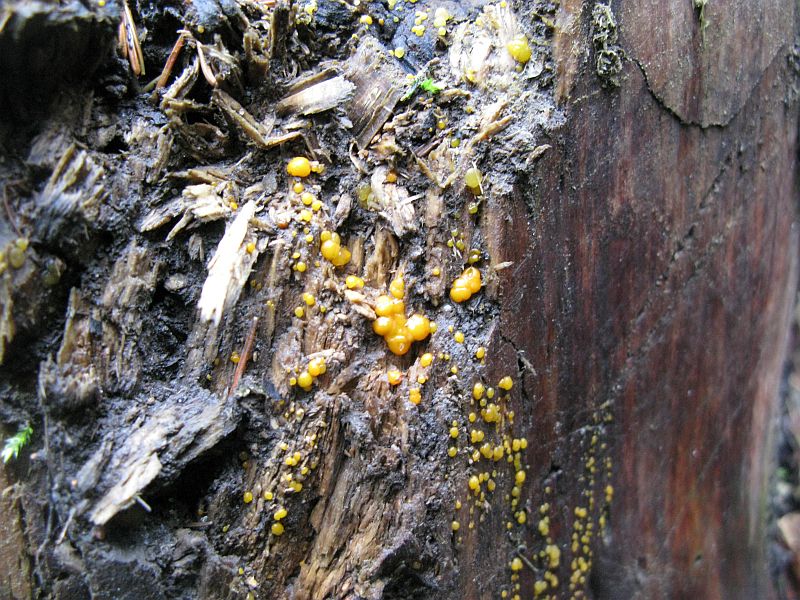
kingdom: Fungi
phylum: Basidiomycota
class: Dacrymycetes
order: Dacrymycetales
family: Dacrymycetaceae
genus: Dacrymyces
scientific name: Dacrymyces stillatus
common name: almindelig tåresvamp
